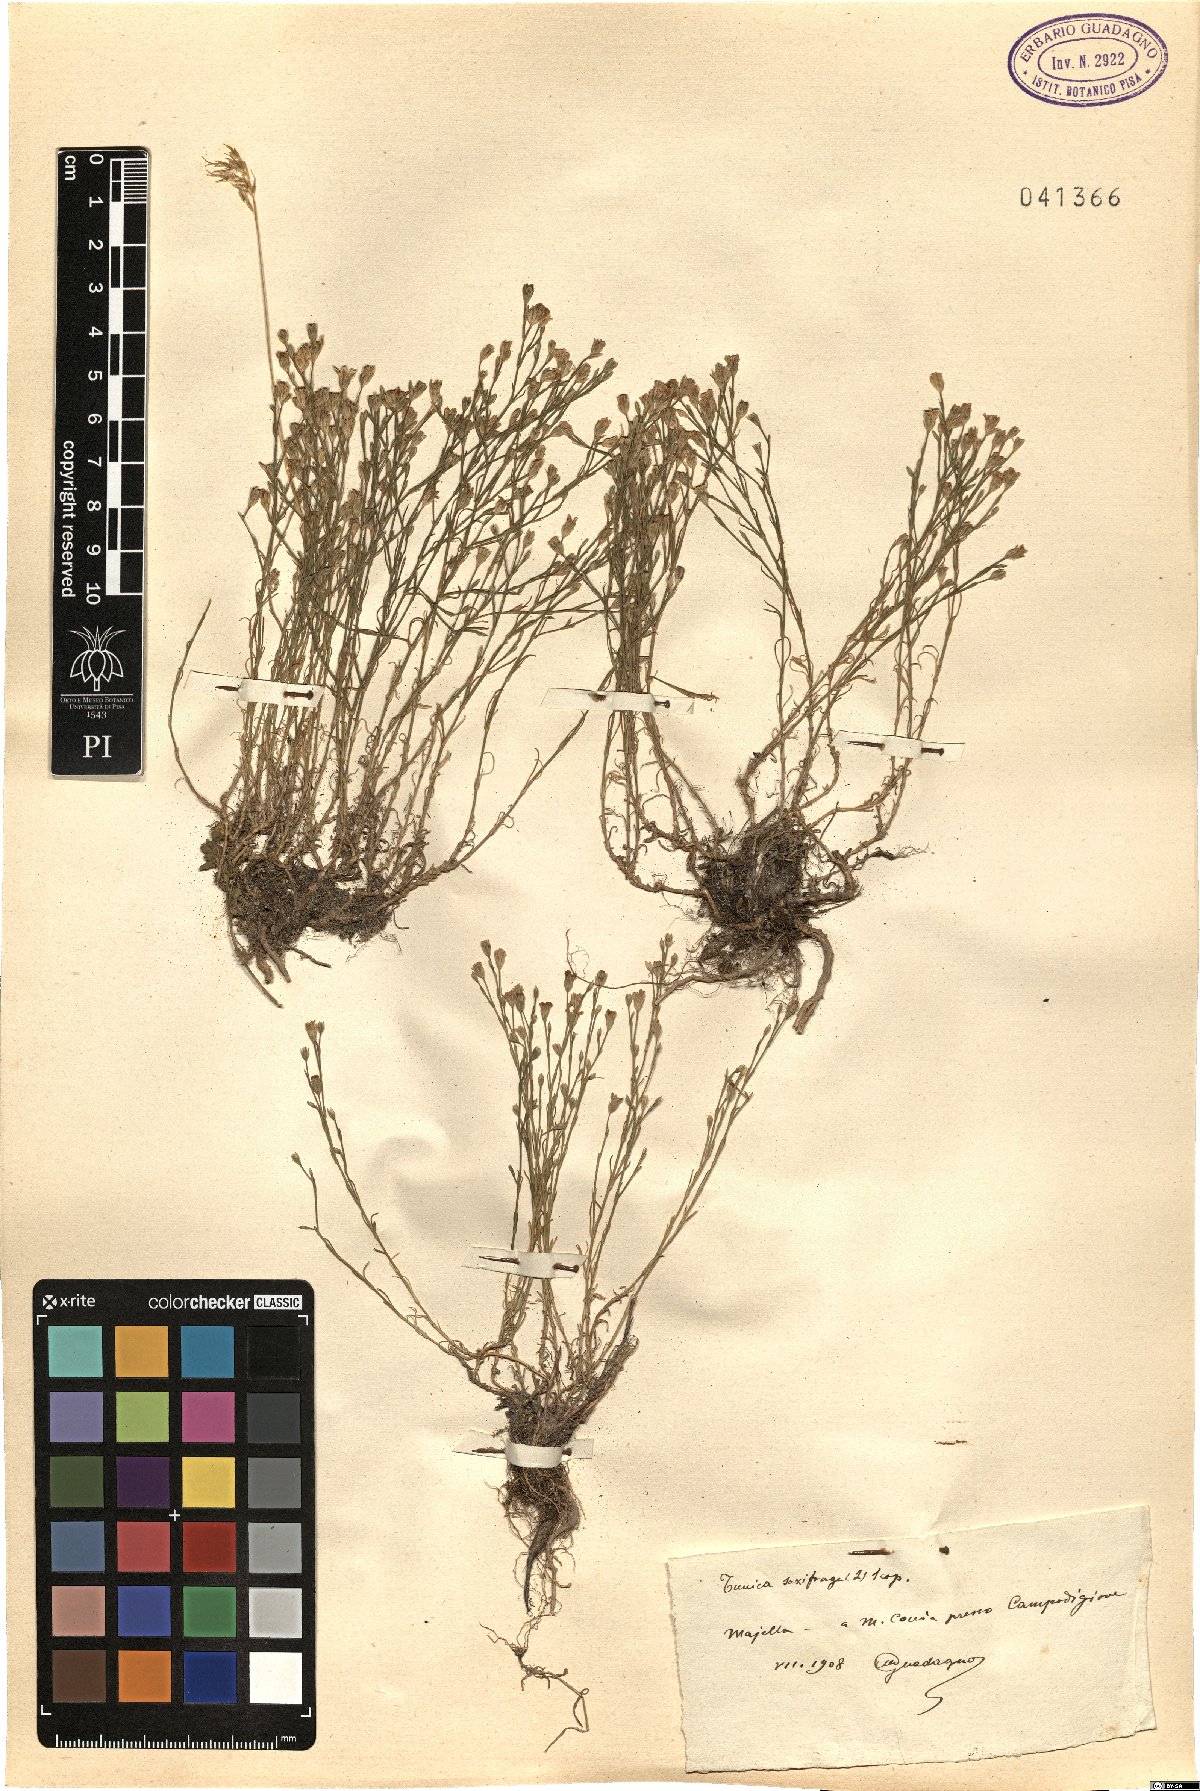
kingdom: Plantae
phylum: Tracheophyta
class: Magnoliopsida
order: Caryophyllales
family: Caryophyllaceae
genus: Petrorhagia
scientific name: Petrorhagia saxifraga
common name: Tunicflower
